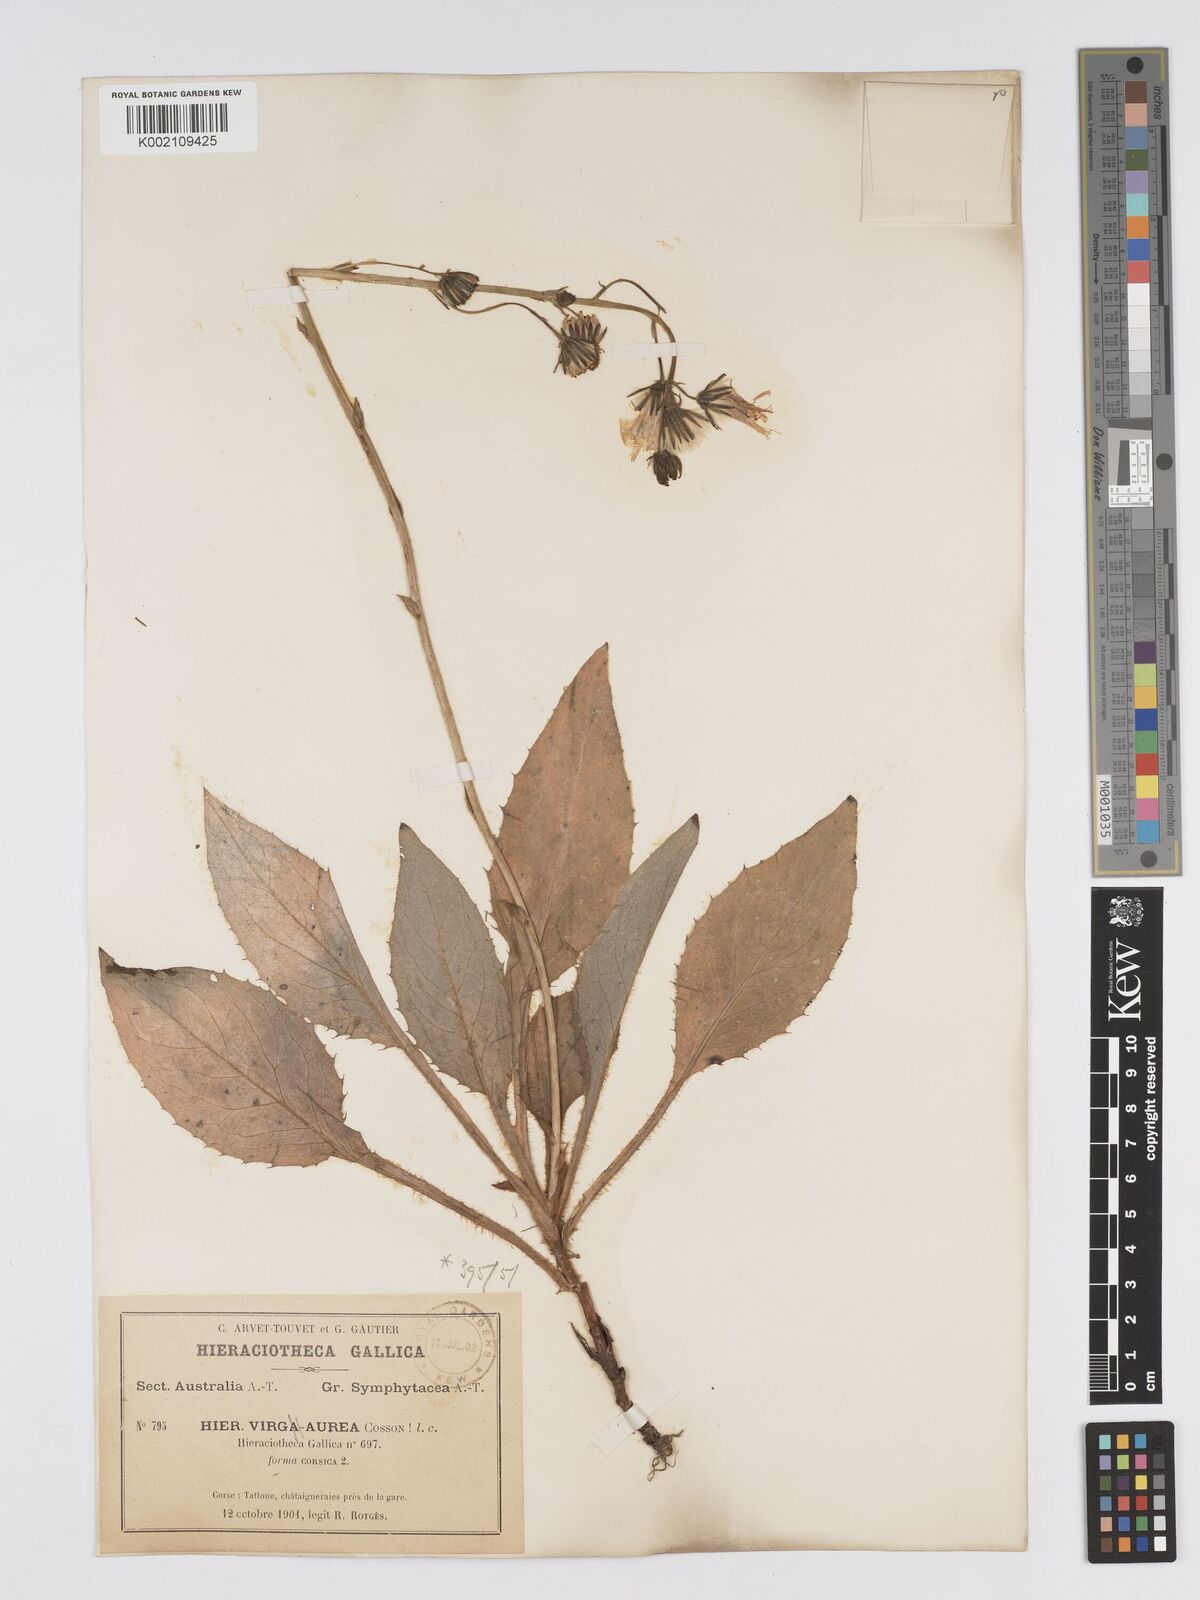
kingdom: Plantae
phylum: Tracheophyta
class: Magnoliopsida
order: Asterales
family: Asteraceae
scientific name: Asteraceae
